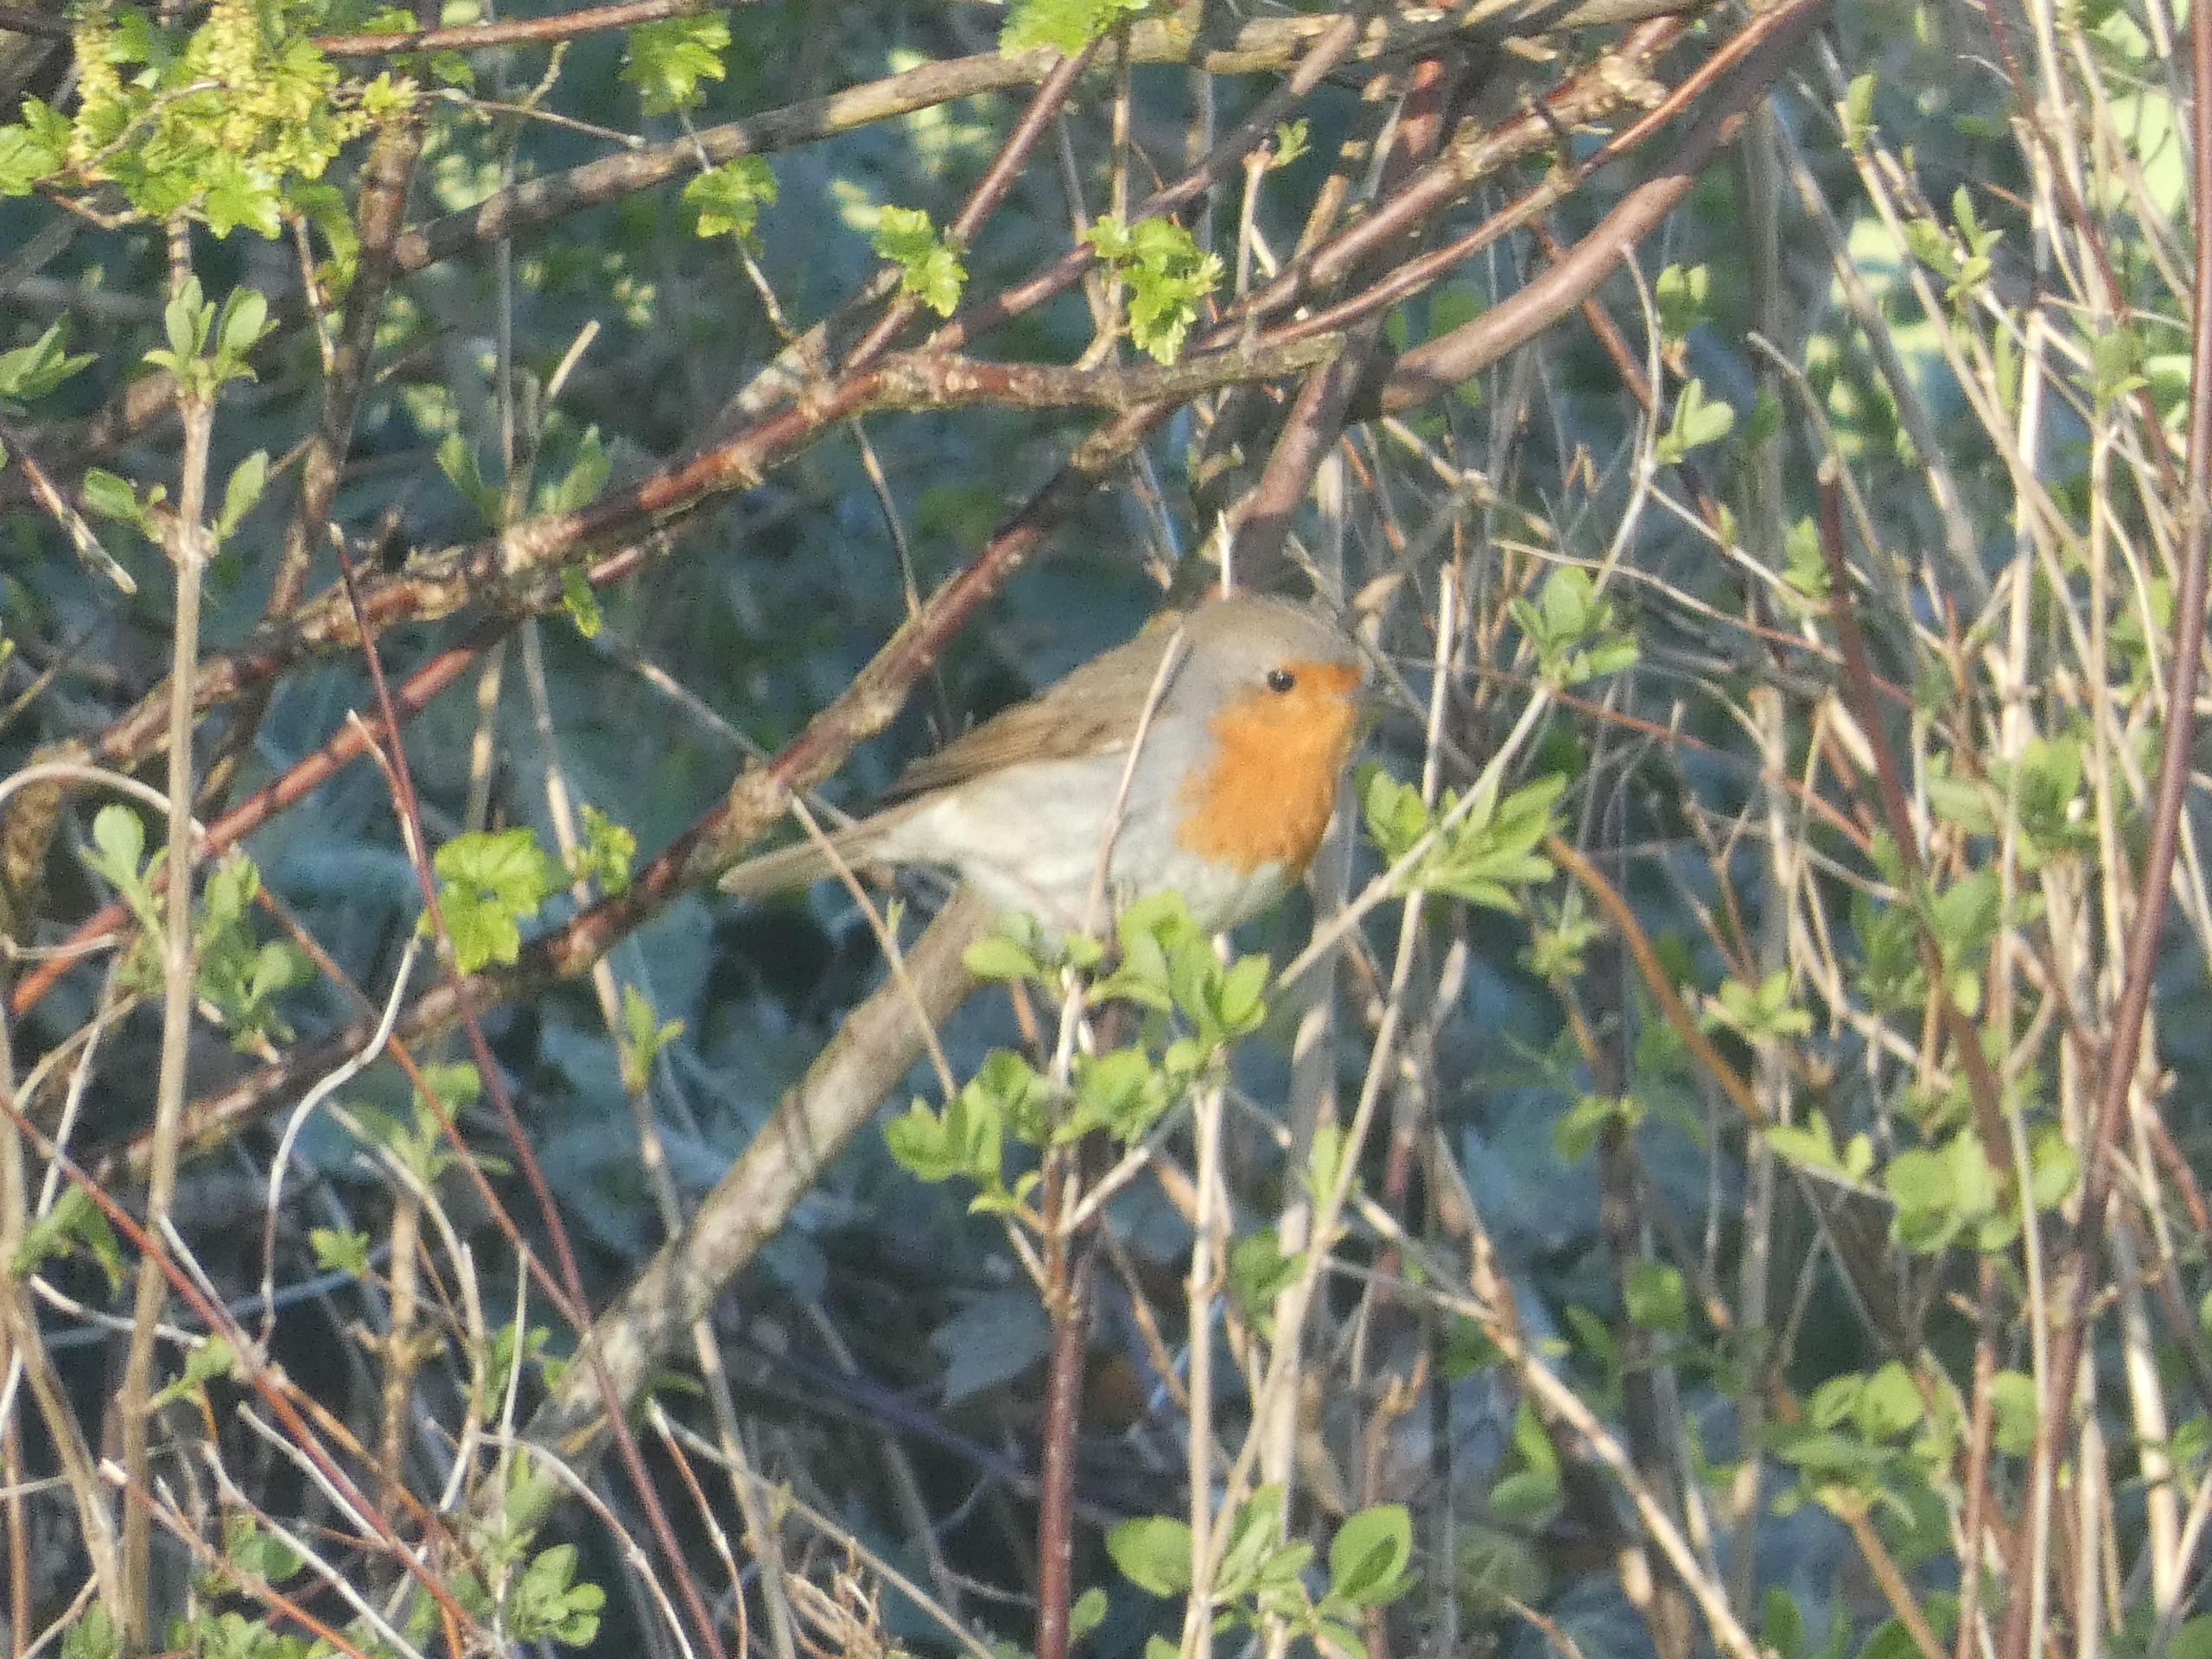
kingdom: Animalia
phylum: Chordata
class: Aves
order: Passeriformes
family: Muscicapidae
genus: Erithacus
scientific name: Erithacus rubecula
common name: Rødhals/rødkælk
